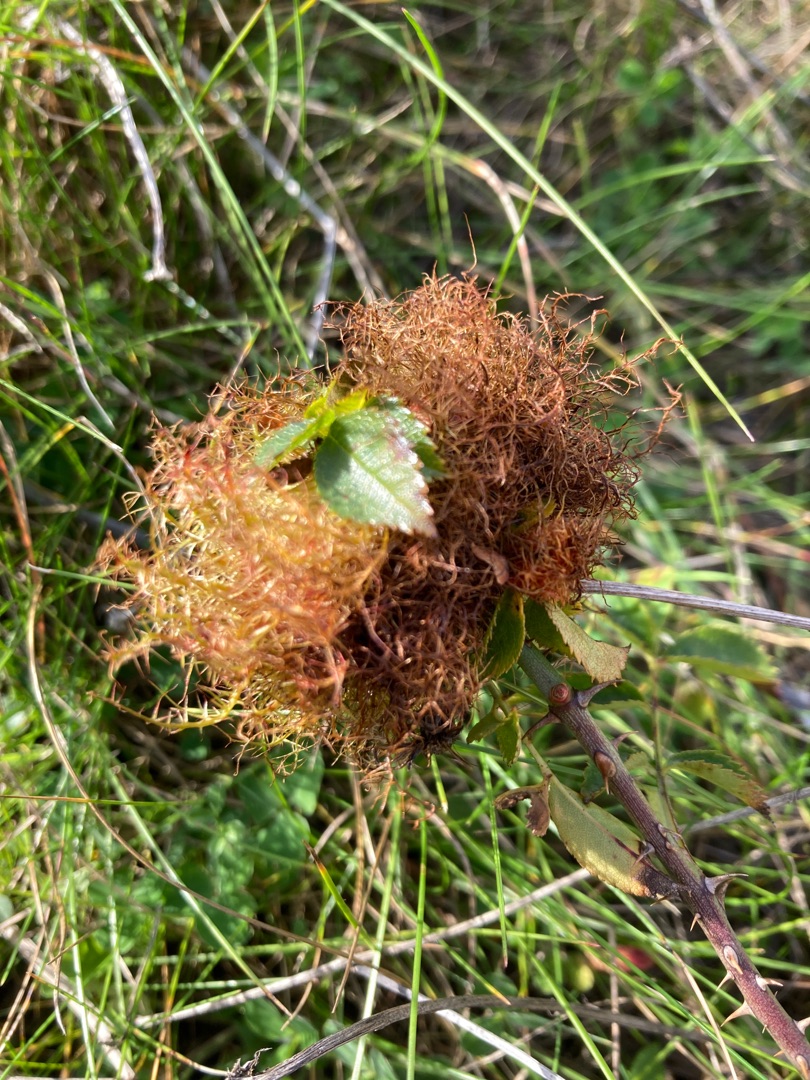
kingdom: Animalia
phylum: Arthropoda
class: Insecta
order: Hymenoptera
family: Cynipidae
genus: Diplolepis
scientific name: Diplolepis rosae
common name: Bedeguargalhveps
